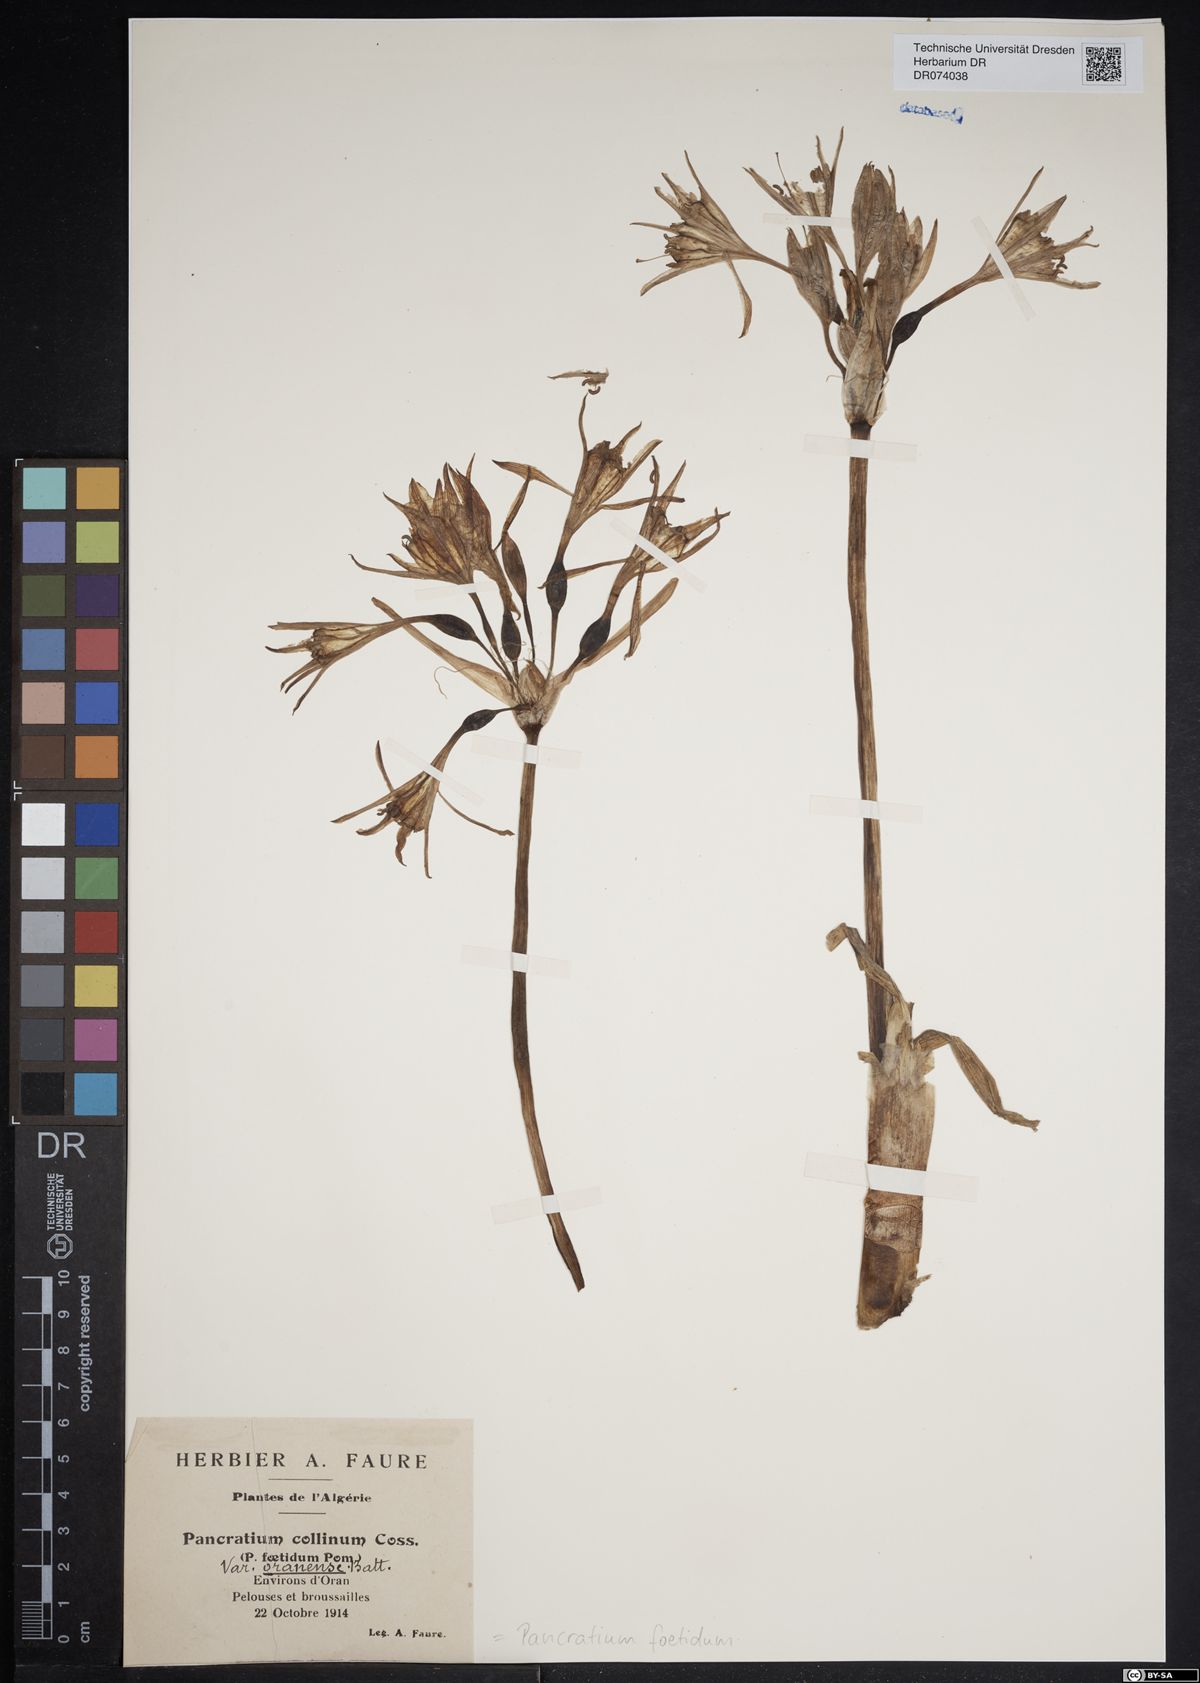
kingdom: Plantae
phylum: Tracheophyta
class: Liliopsida
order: Asparagales
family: Amaryllidaceae
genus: Pancratium
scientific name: Pancratium foetidum
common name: Stinking daffodil
